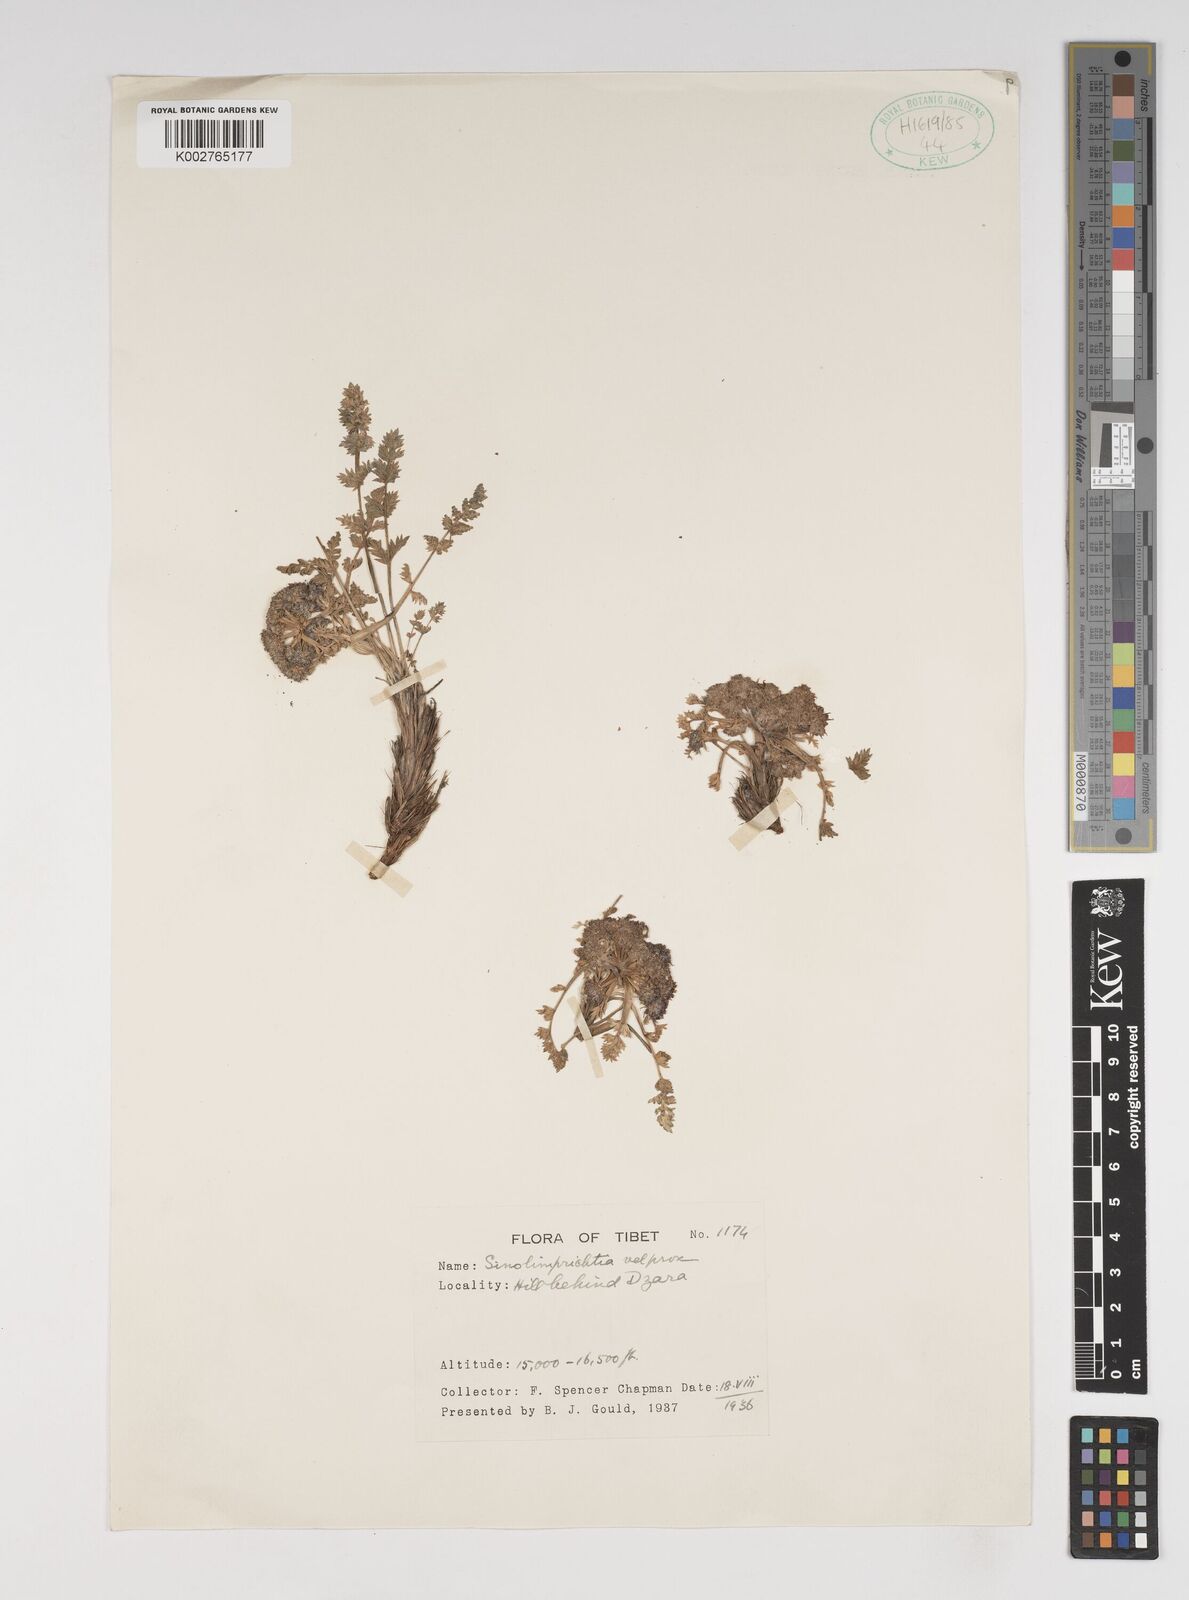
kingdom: Plantae
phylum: Tracheophyta
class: Magnoliopsida
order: Apiales
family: Apiaceae
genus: Sinolimprichtia
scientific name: Sinolimprichtia
